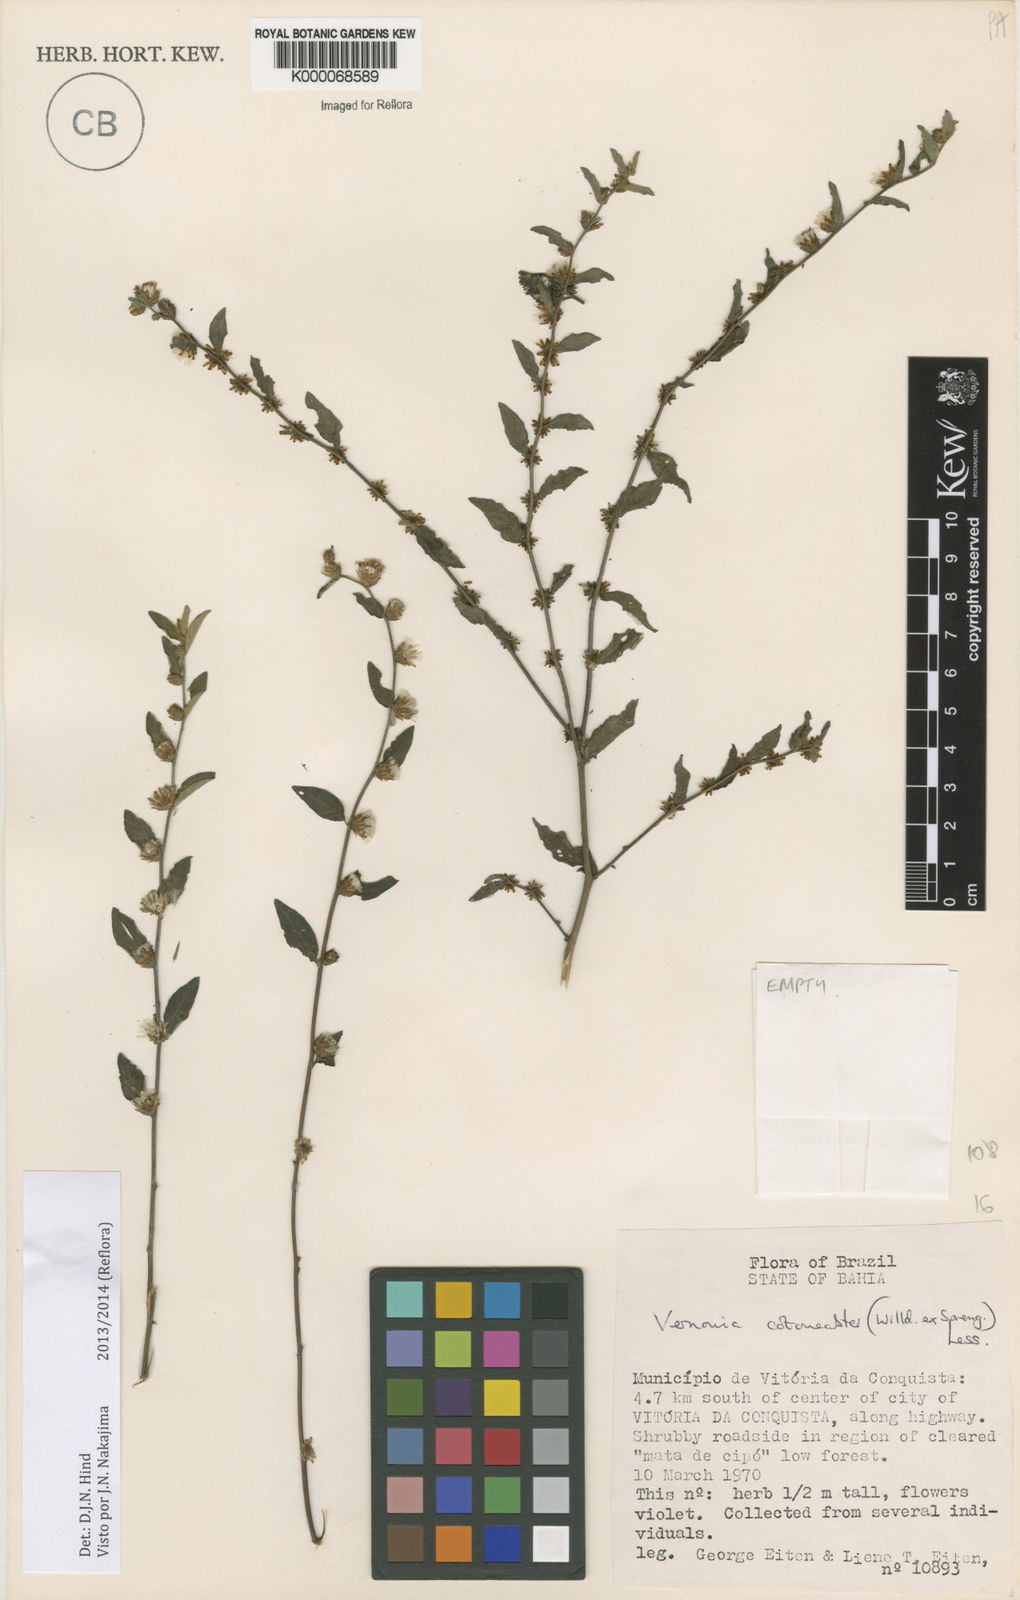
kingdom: Plantae
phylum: Tracheophyta
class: Magnoliopsida
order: Asterales
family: Asteraceae
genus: Lepidaploa
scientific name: Lepidaploa cotoneaster
